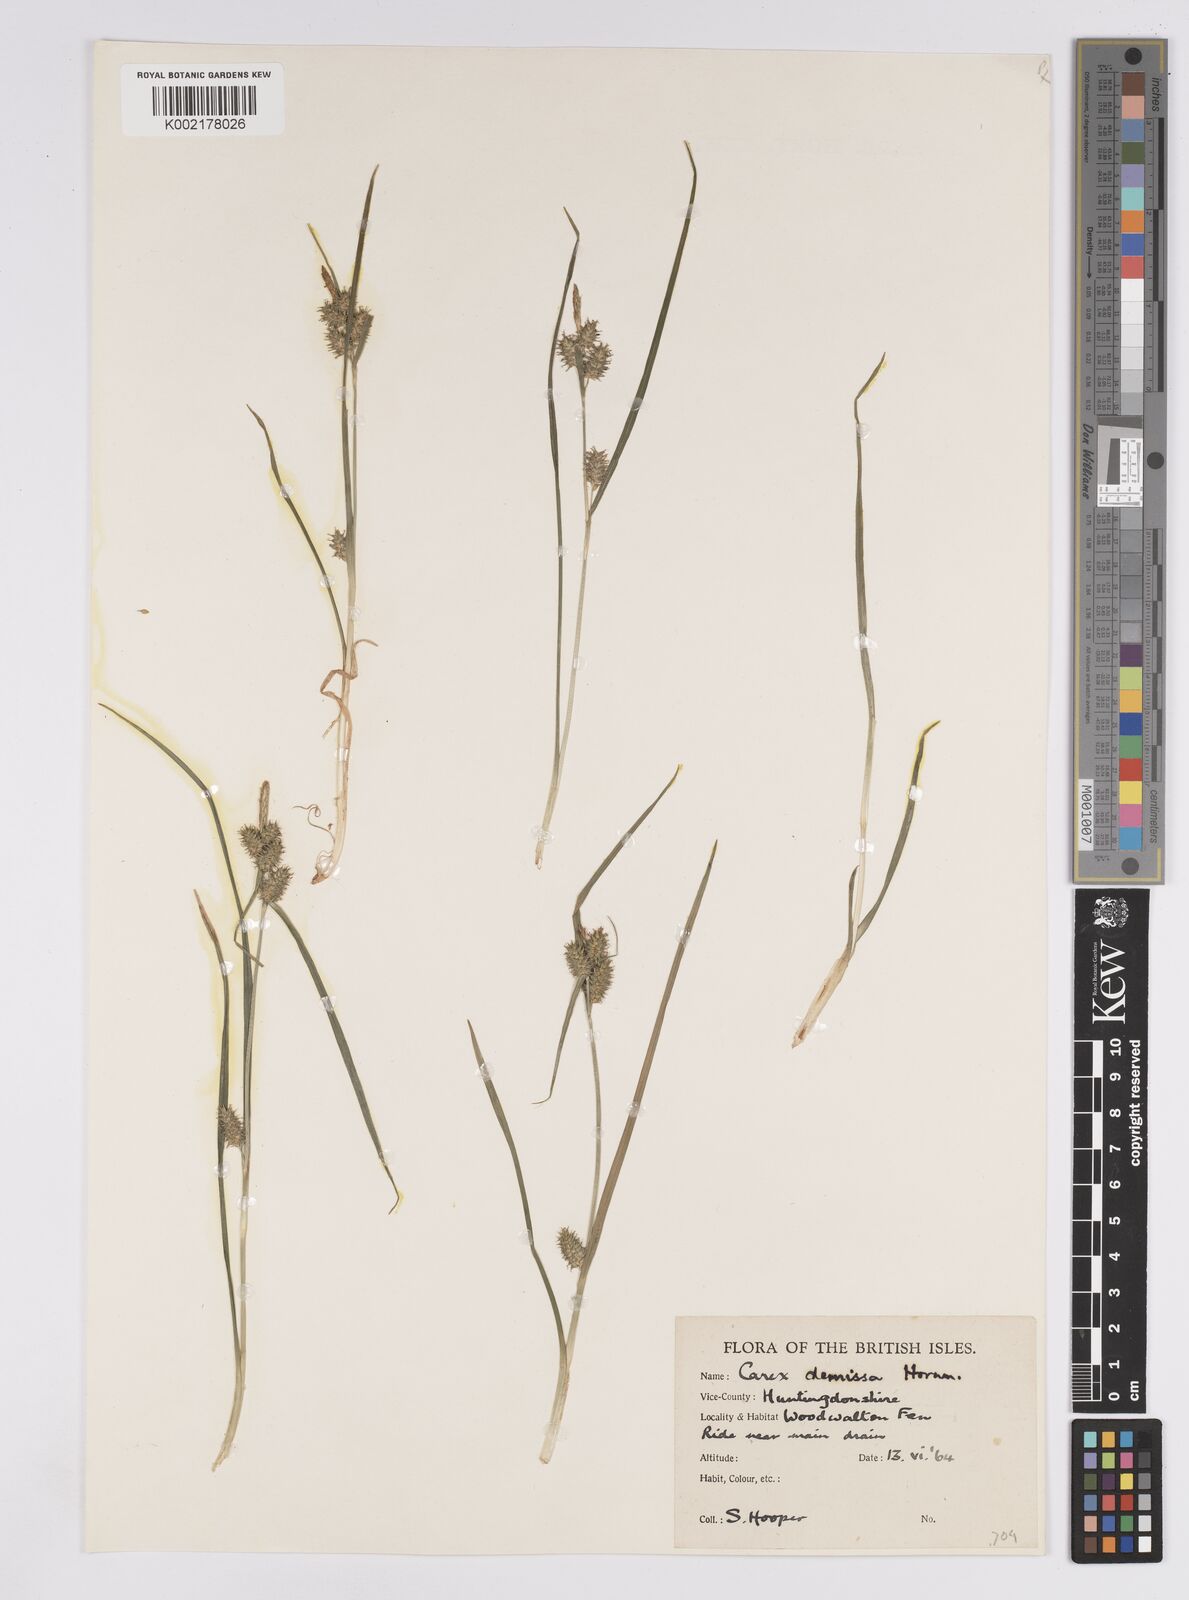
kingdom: Plantae
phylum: Tracheophyta
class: Liliopsida
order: Poales
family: Cyperaceae
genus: Carex
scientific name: Carex demissa
